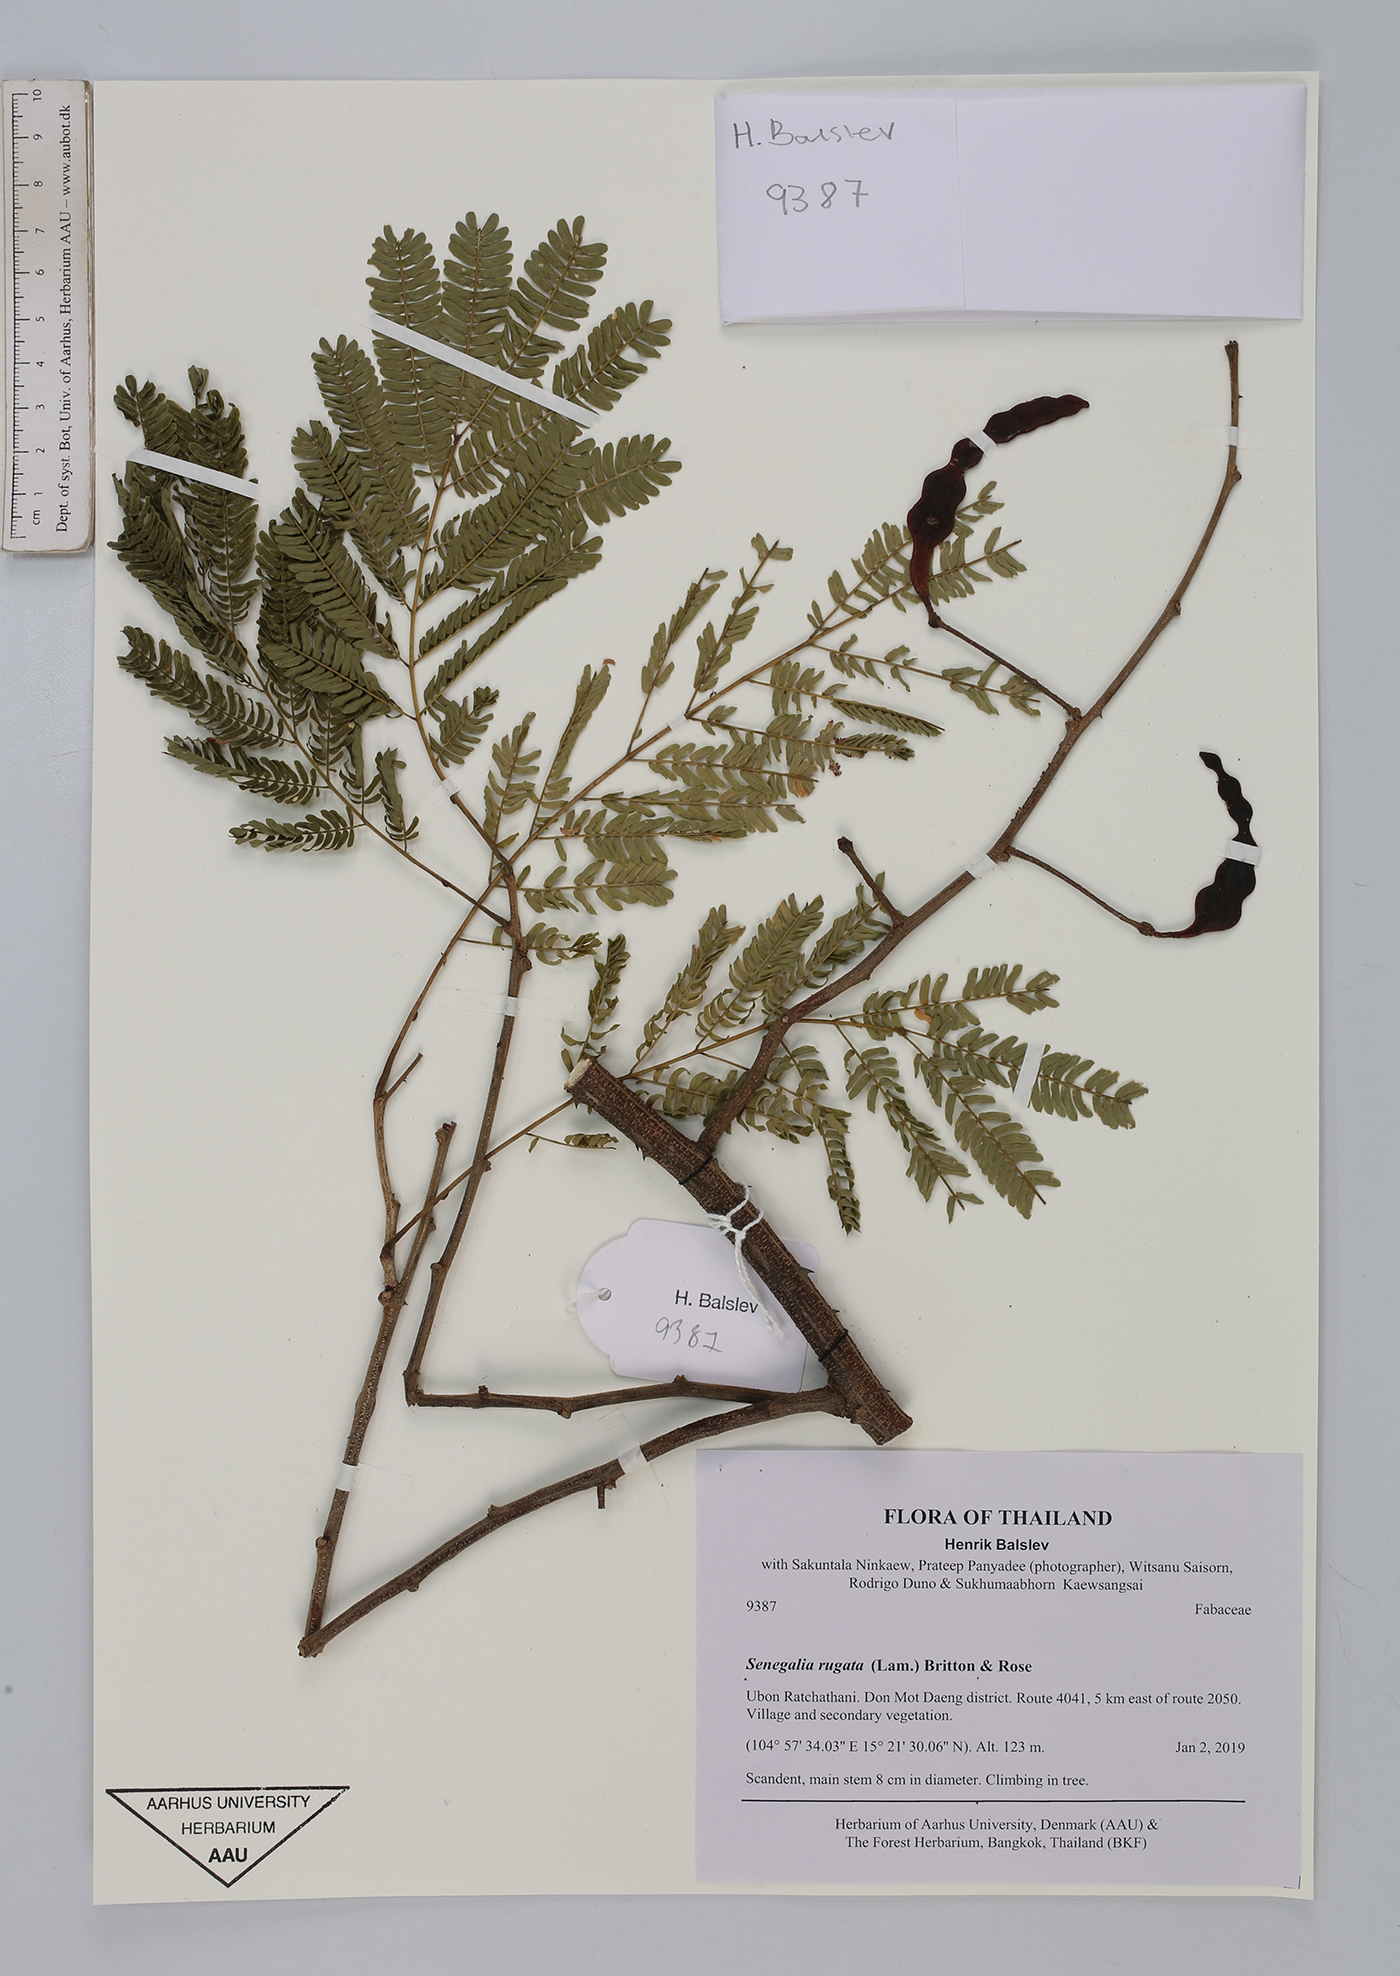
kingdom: Plantae
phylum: Tracheophyta
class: Magnoliopsida
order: Fabales
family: Fabaceae
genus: Senegalia
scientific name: Senegalia rugata
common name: Soap-pod
